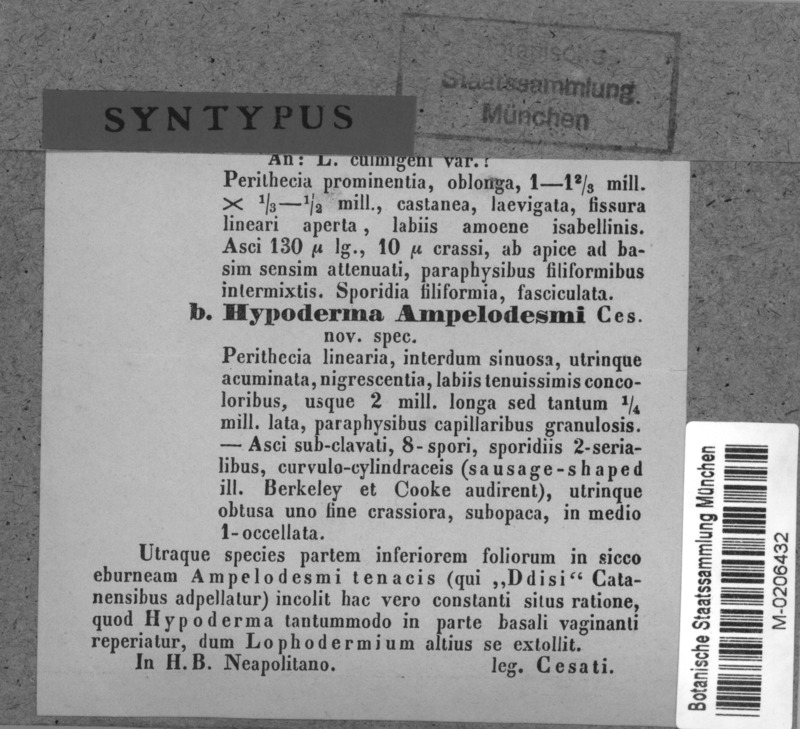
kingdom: Fungi
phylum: Ascomycota
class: Leotiomycetes
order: Rhytismatales
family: Rhytismataceae
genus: Hypoderma
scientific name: Hypoderma
